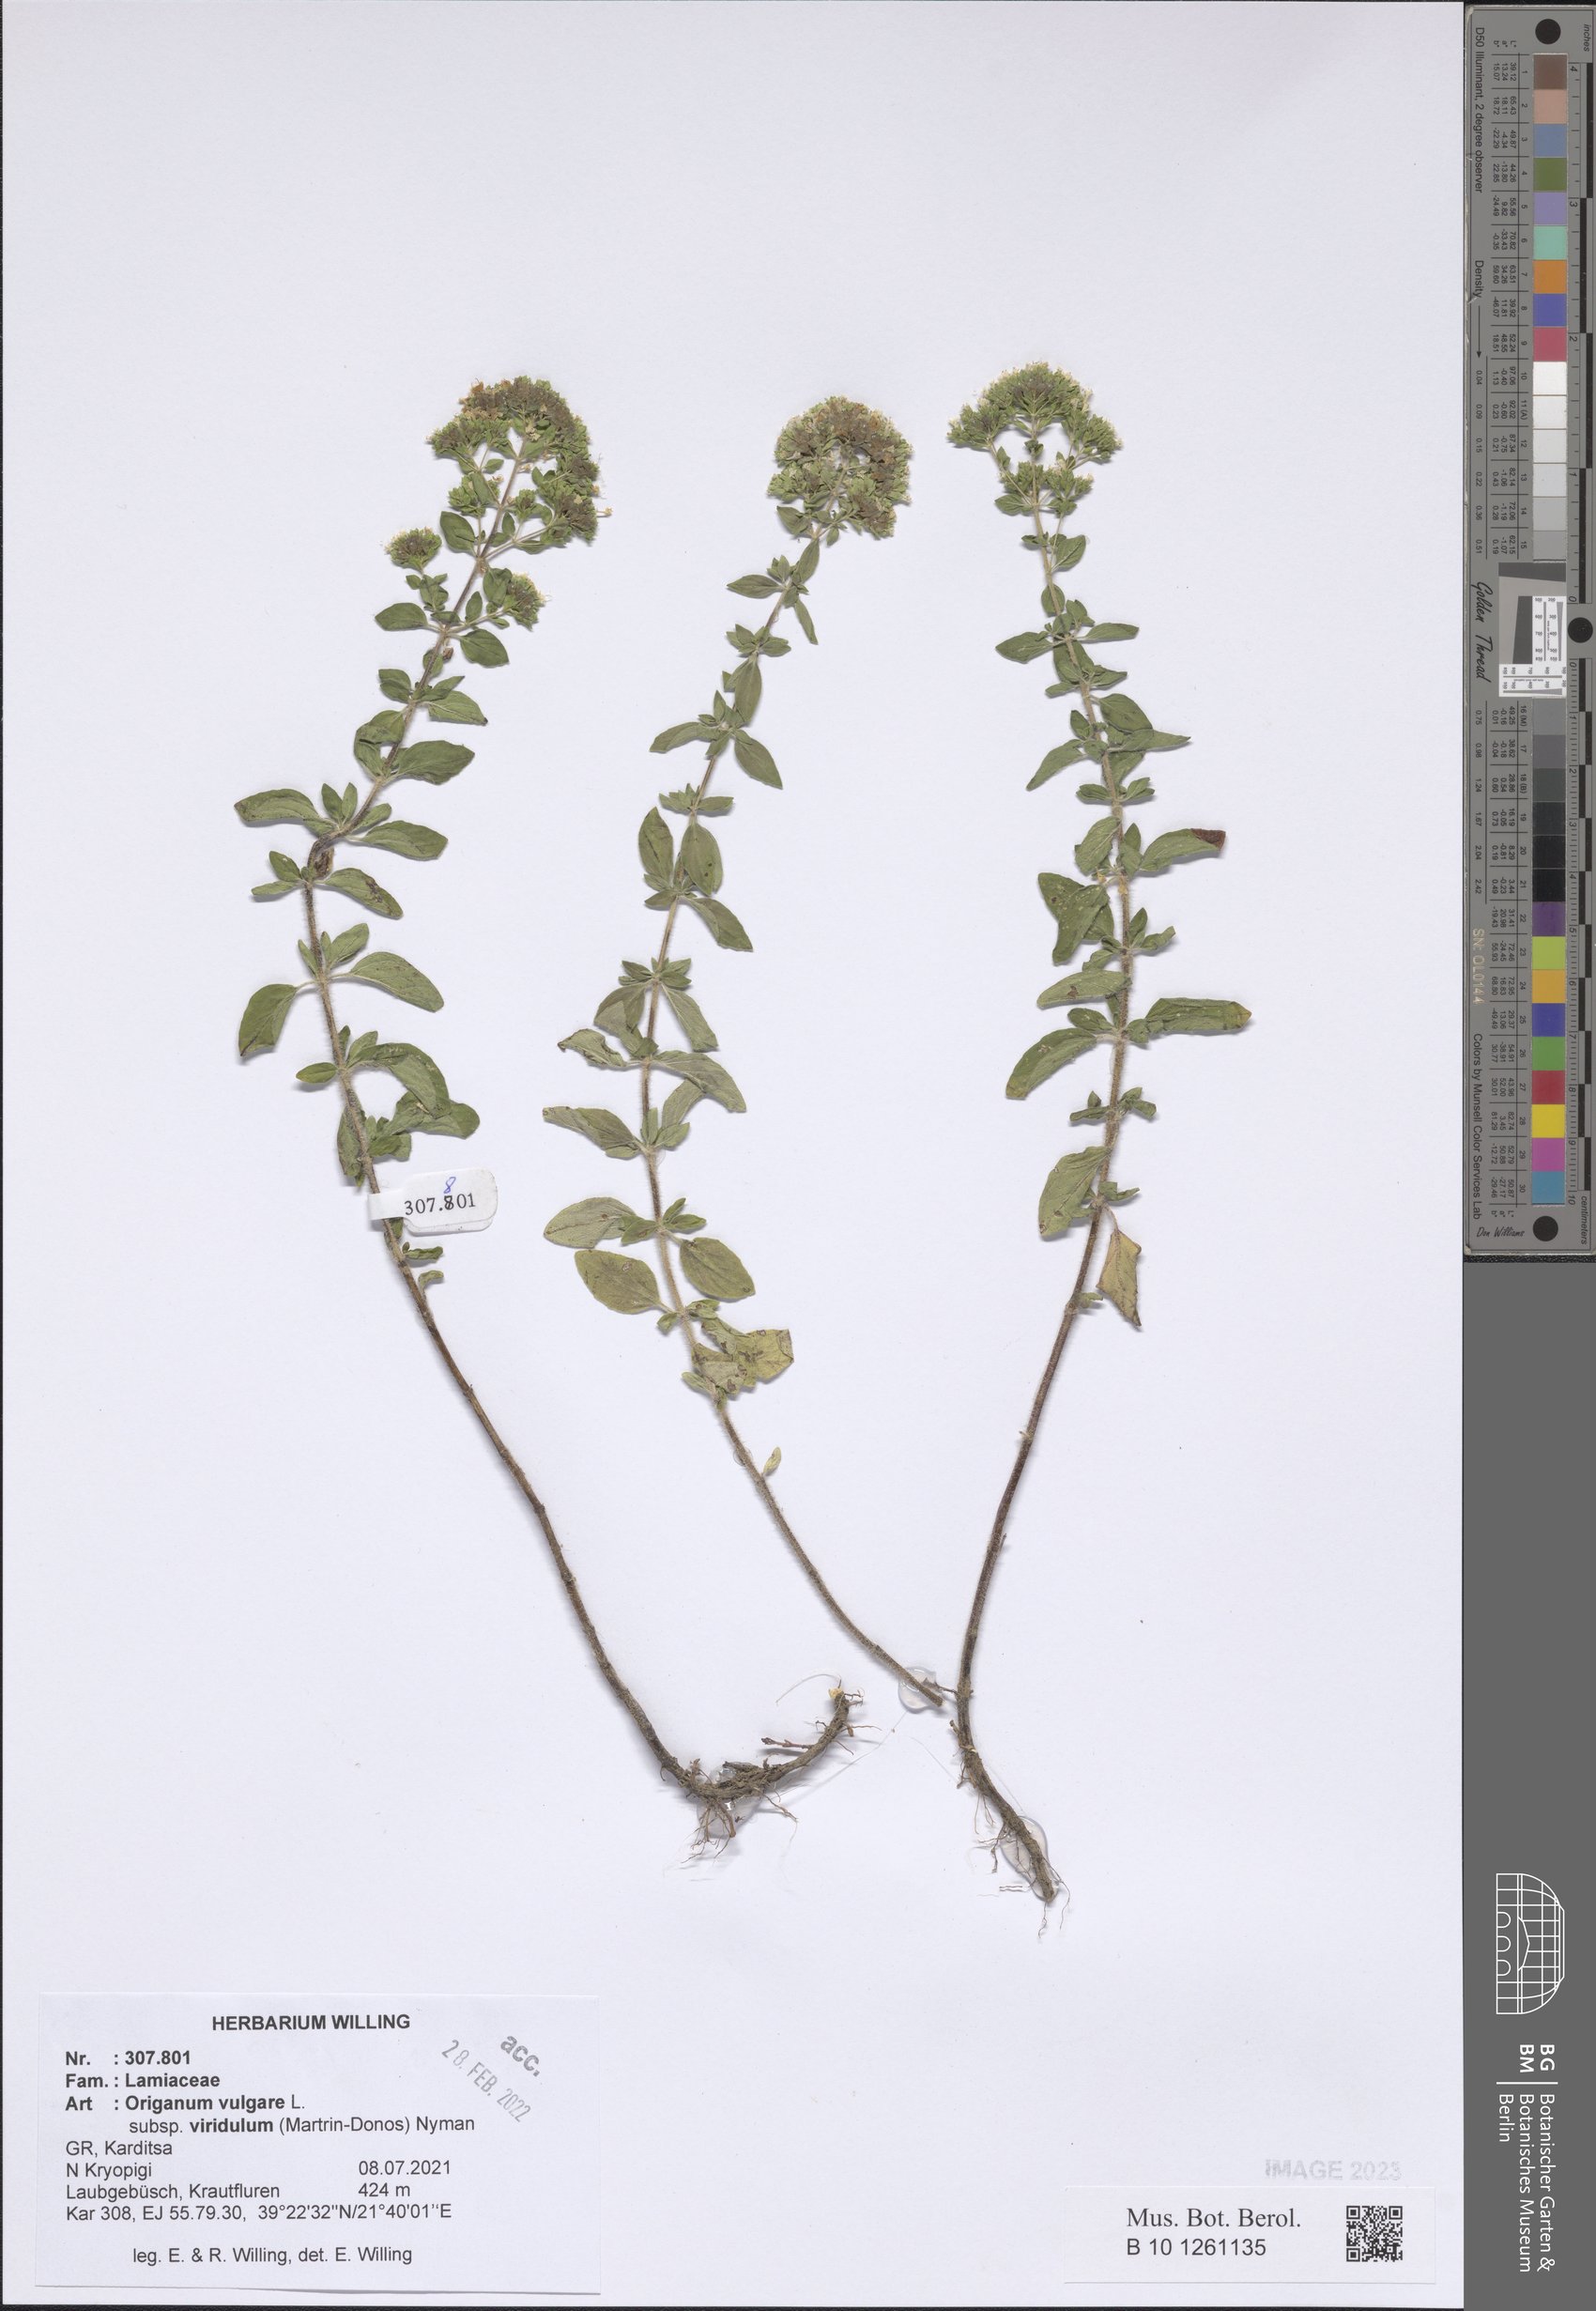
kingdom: Plantae
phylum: Tracheophyta
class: Magnoliopsida
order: Lamiales
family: Lamiaceae
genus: Origanum
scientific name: Origanum vulgare
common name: Wild marjoram
